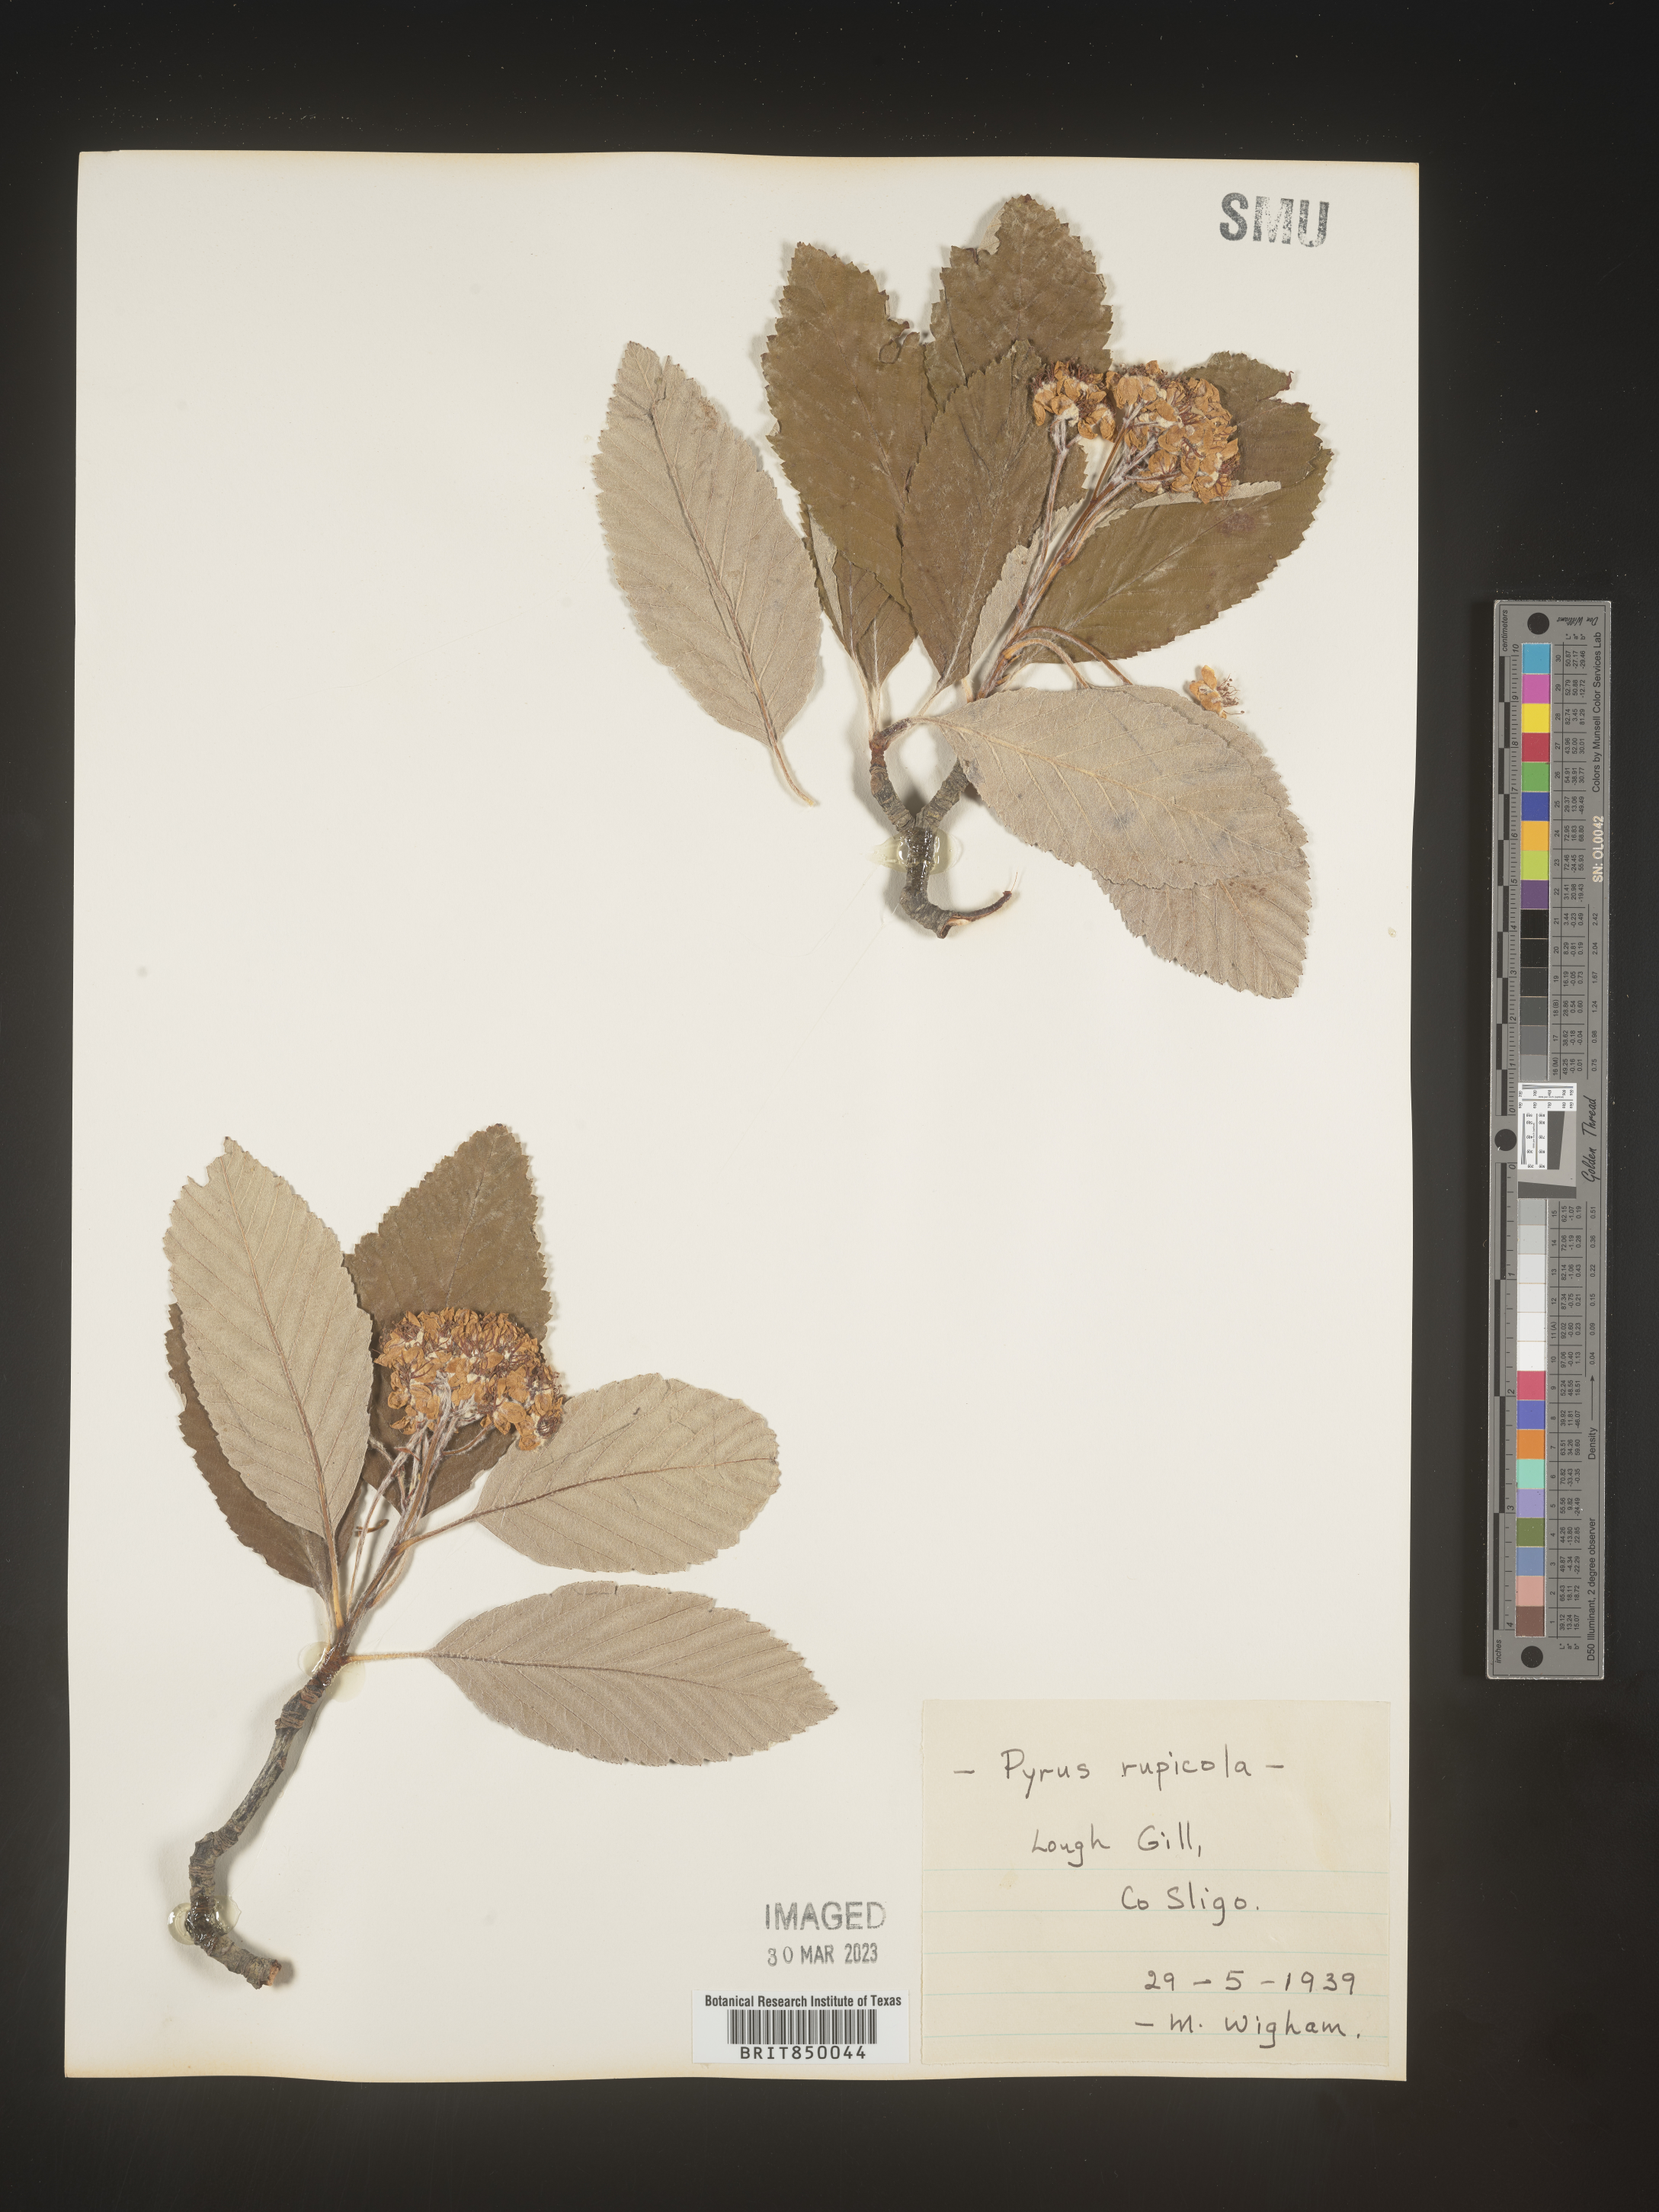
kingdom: Plantae
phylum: Tracheophyta
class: Magnoliopsida
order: Rosales
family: Rosaceae
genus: Sorbus
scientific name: Sorbus
